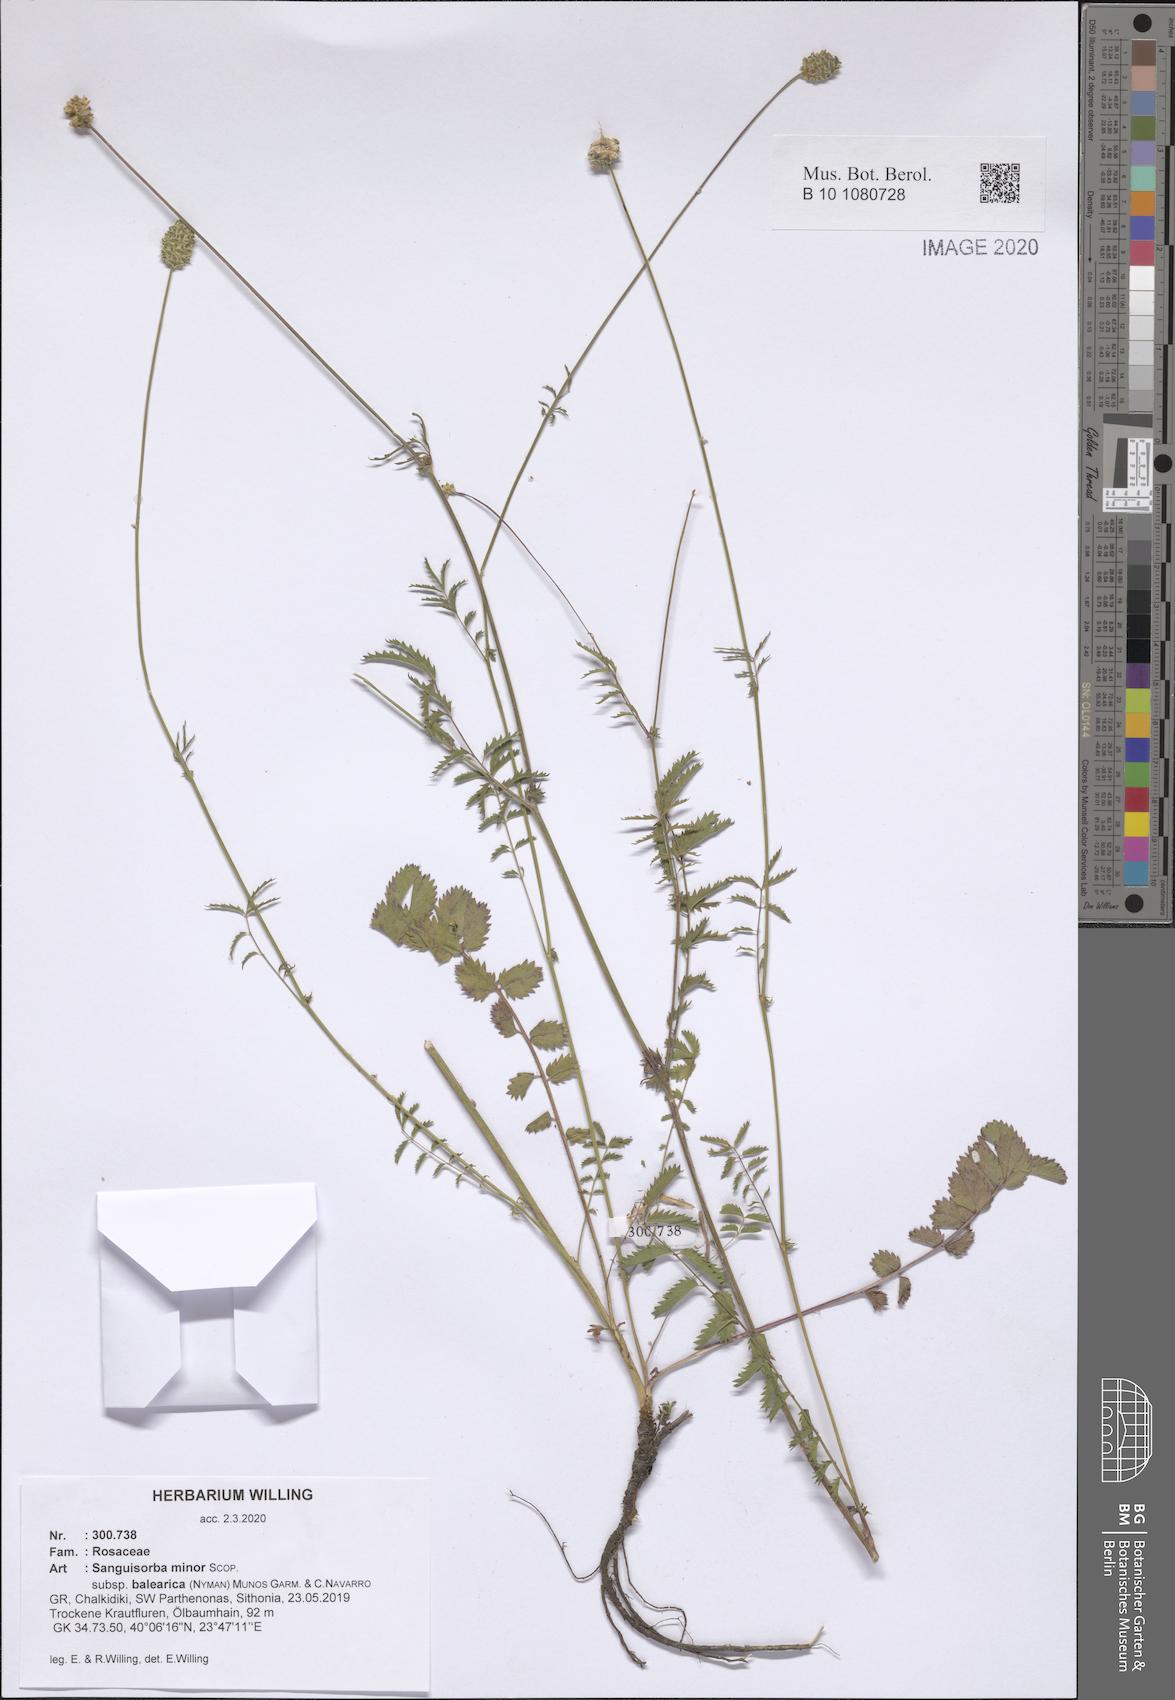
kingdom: Plantae
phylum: Tracheophyta
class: Magnoliopsida
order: Rosales
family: Rosaceae
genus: Poterium
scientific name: Poterium sanguisorba
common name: Salad burnet
